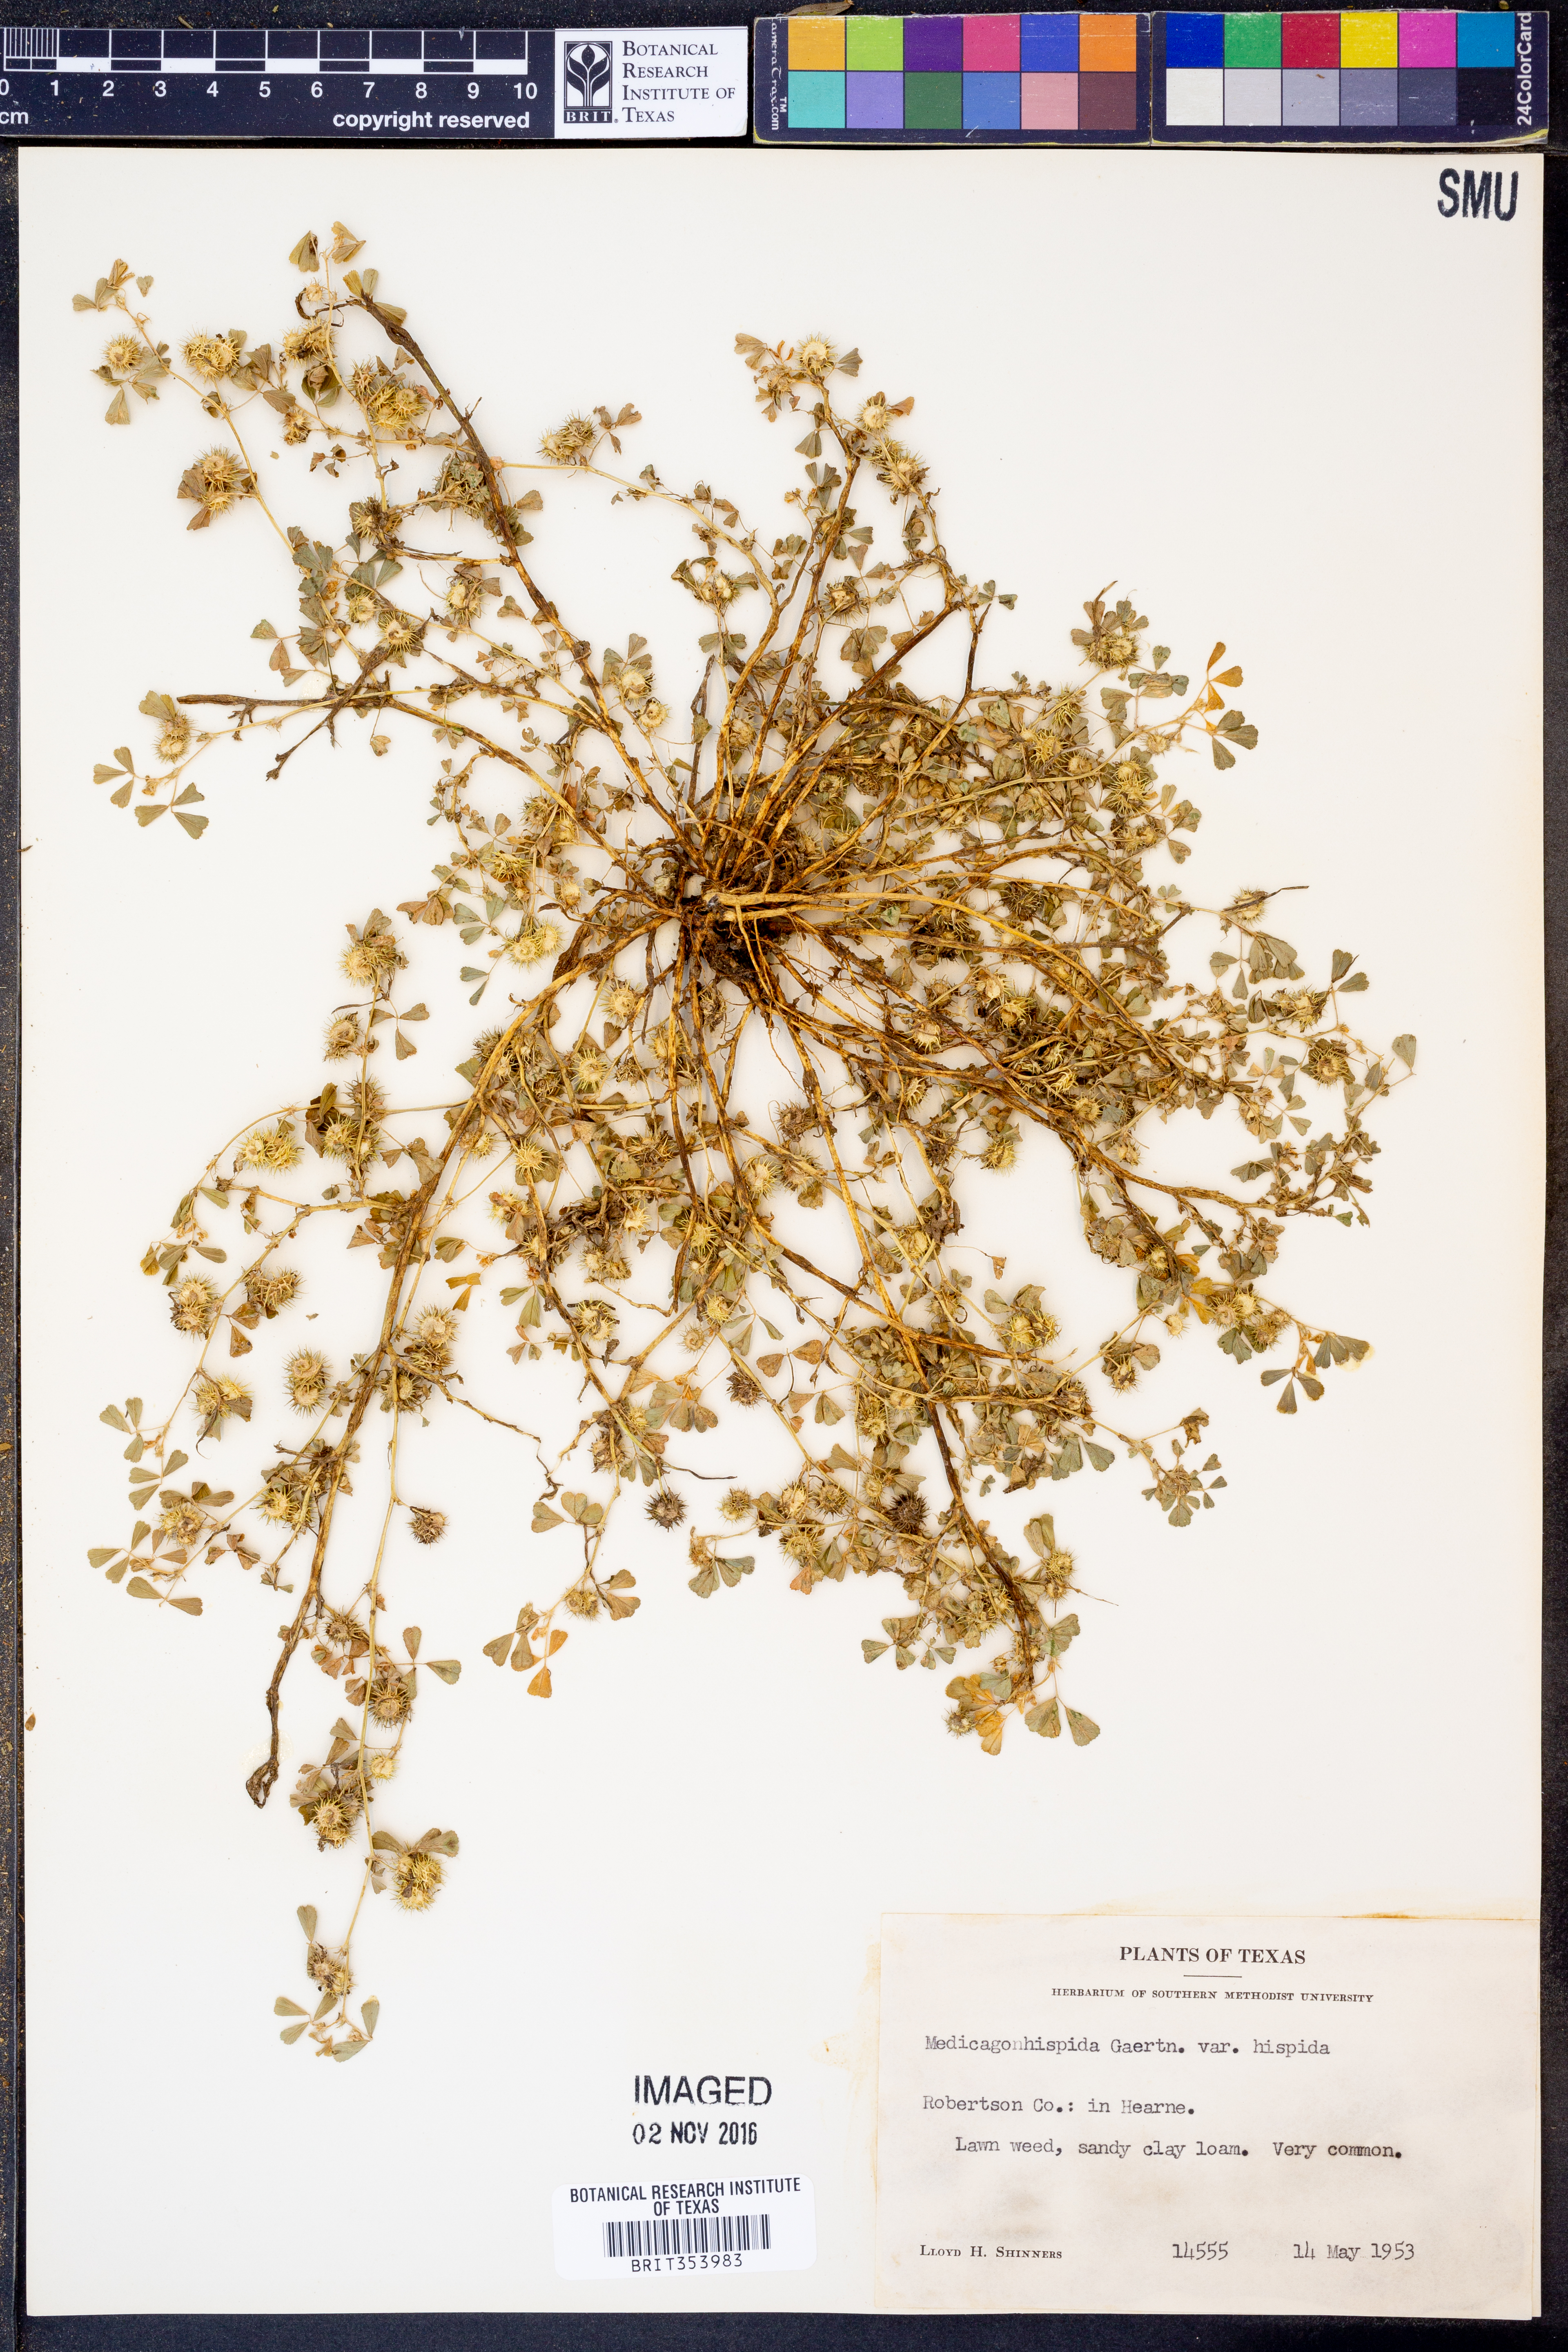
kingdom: Plantae
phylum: Tracheophyta
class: Magnoliopsida
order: Fabales
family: Fabaceae
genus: Medicago
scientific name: Medicago polymorpha
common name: Burclover
